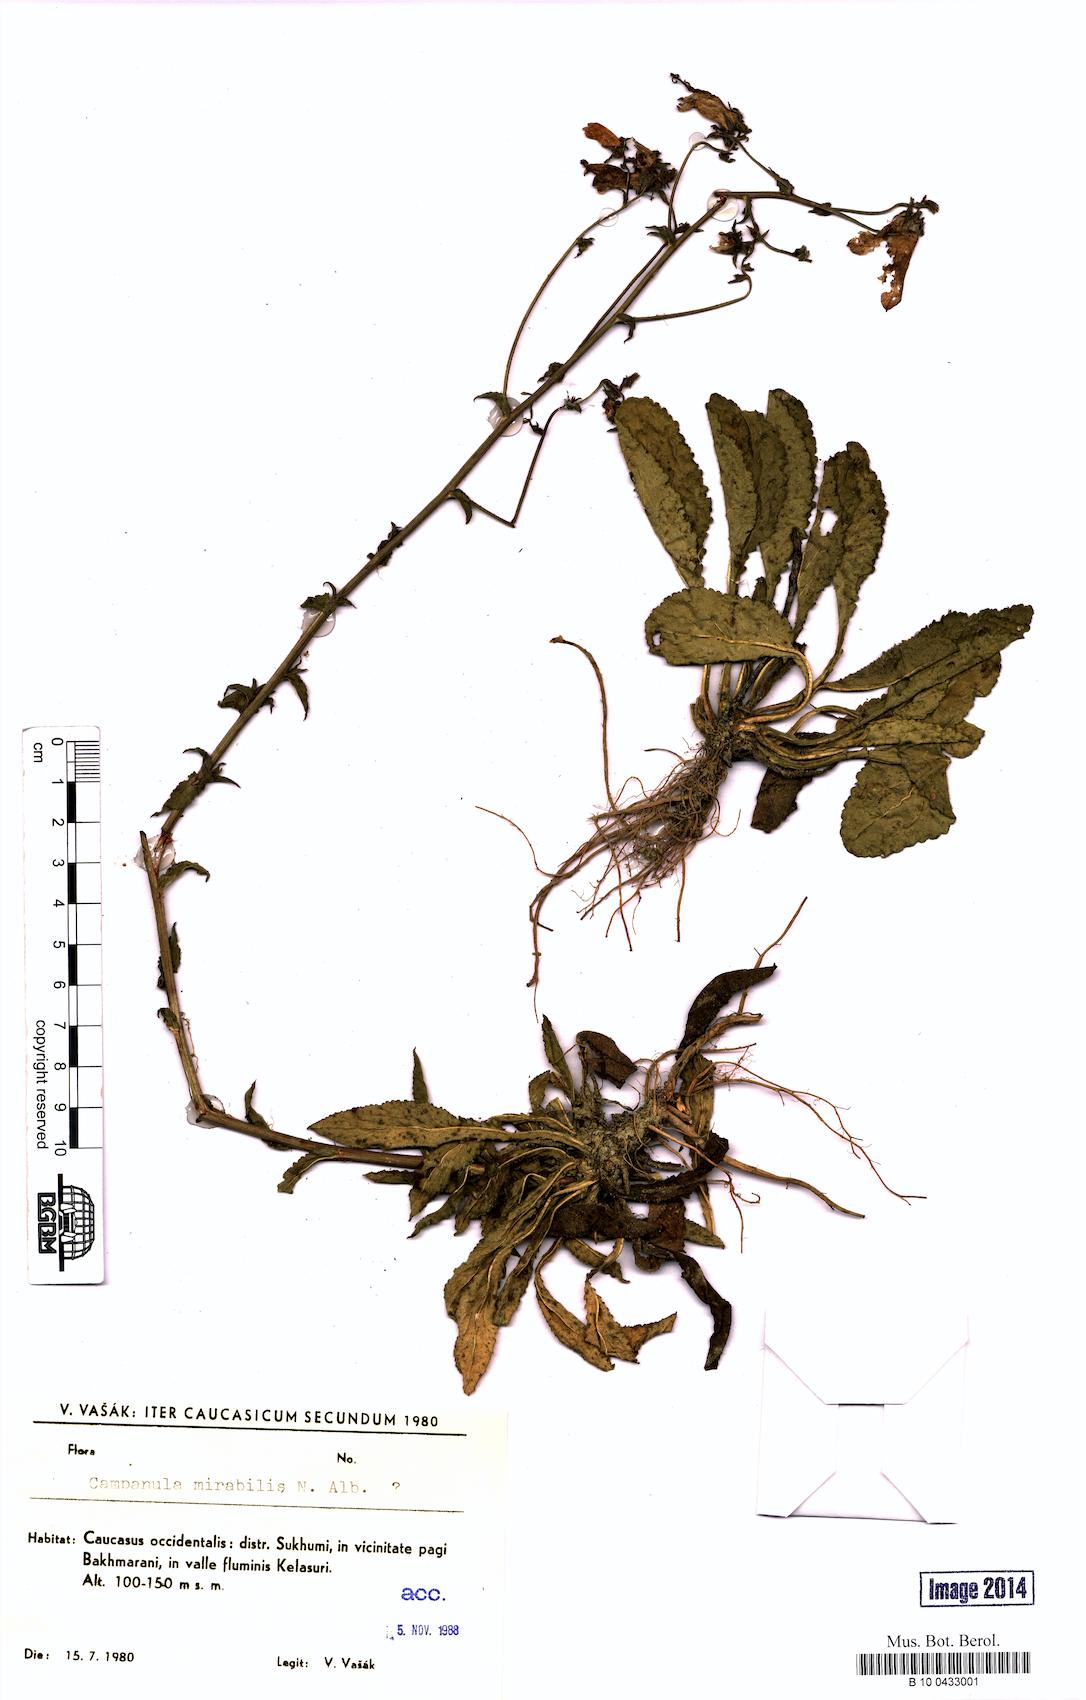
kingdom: Plantae
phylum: Tracheophyta
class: Magnoliopsida
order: Asterales
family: Campanulaceae
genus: Campanula
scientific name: Campanula mirabilis
